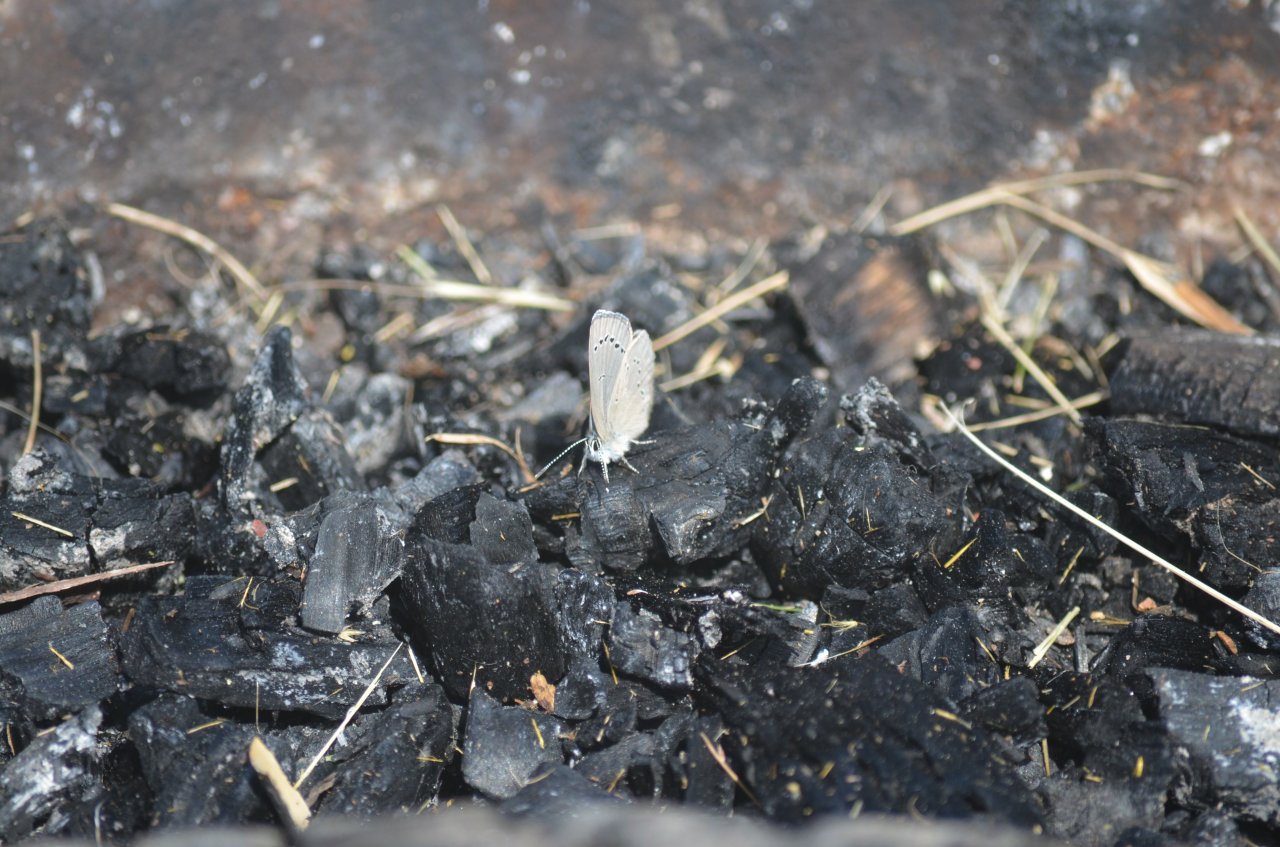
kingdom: Animalia
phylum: Arthropoda
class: Insecta
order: Lepidoptera
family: Lycaenidae
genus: Glaucopsyche
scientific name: Glaucopsyche lygdamus
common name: Silvery Blue
